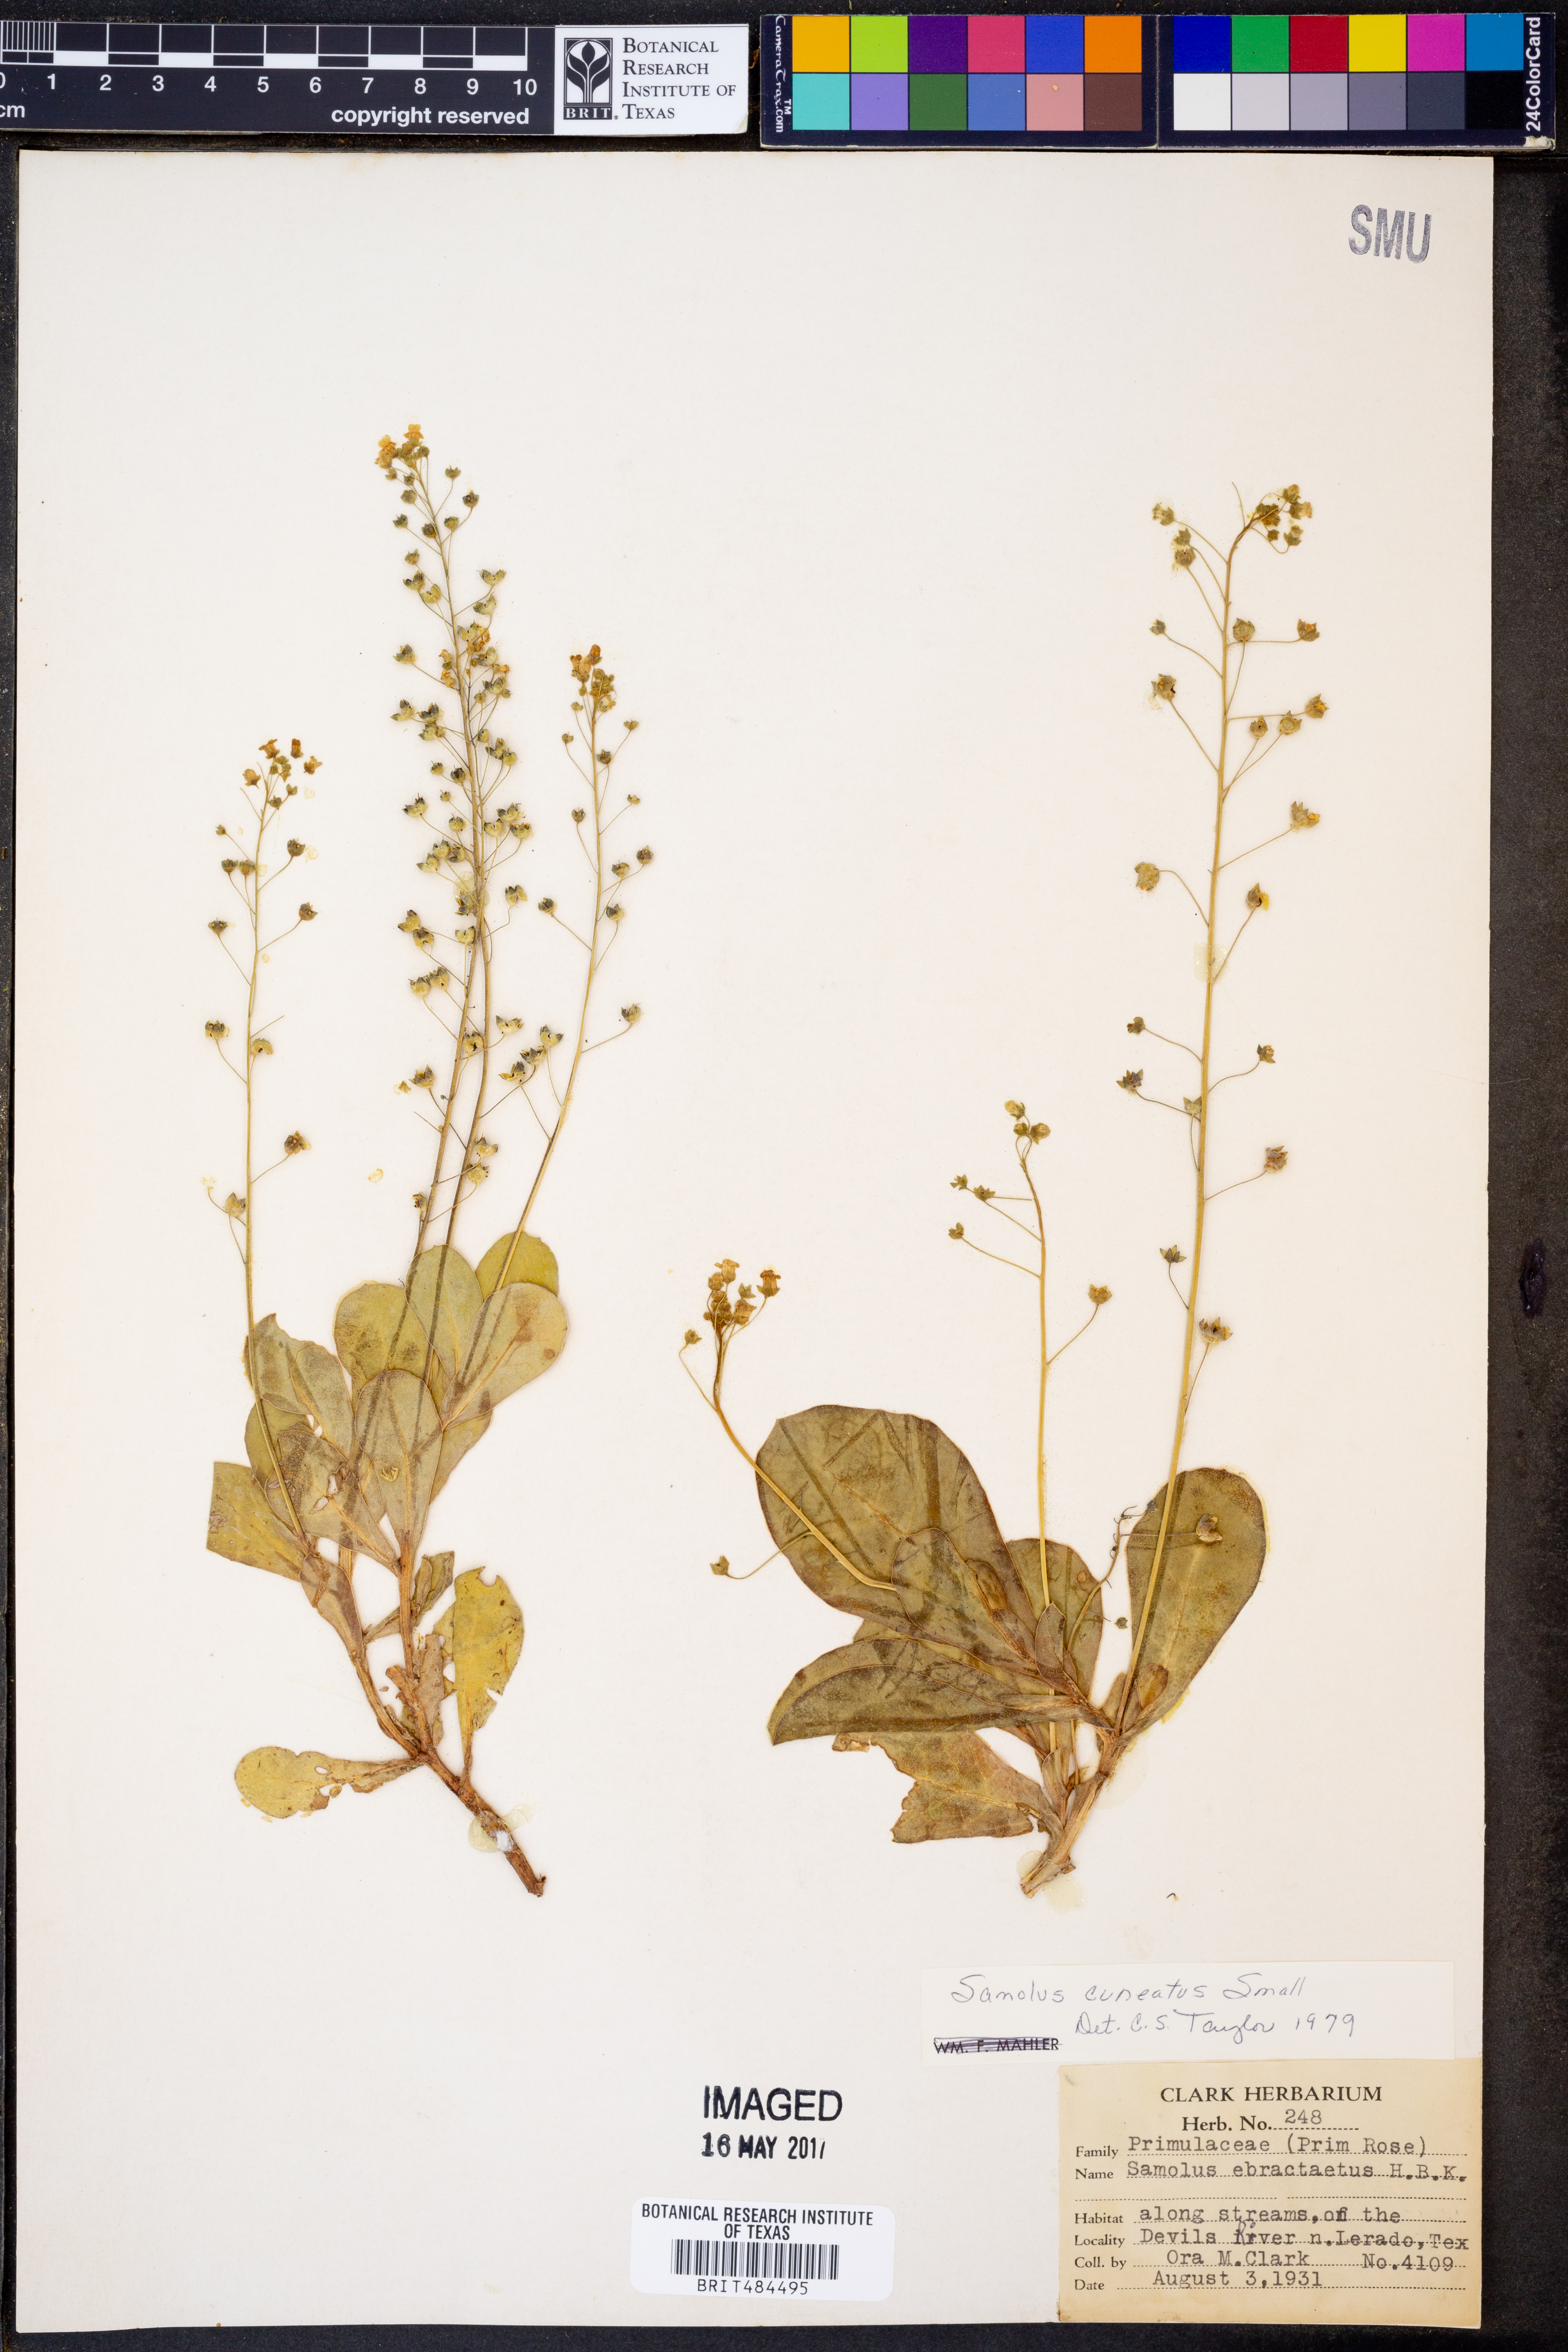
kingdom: Plantae
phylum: Tracheophyta
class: Magnoliopsida
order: Ericales
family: Primulaceae
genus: Samolus
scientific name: Samolus ebracteatus
